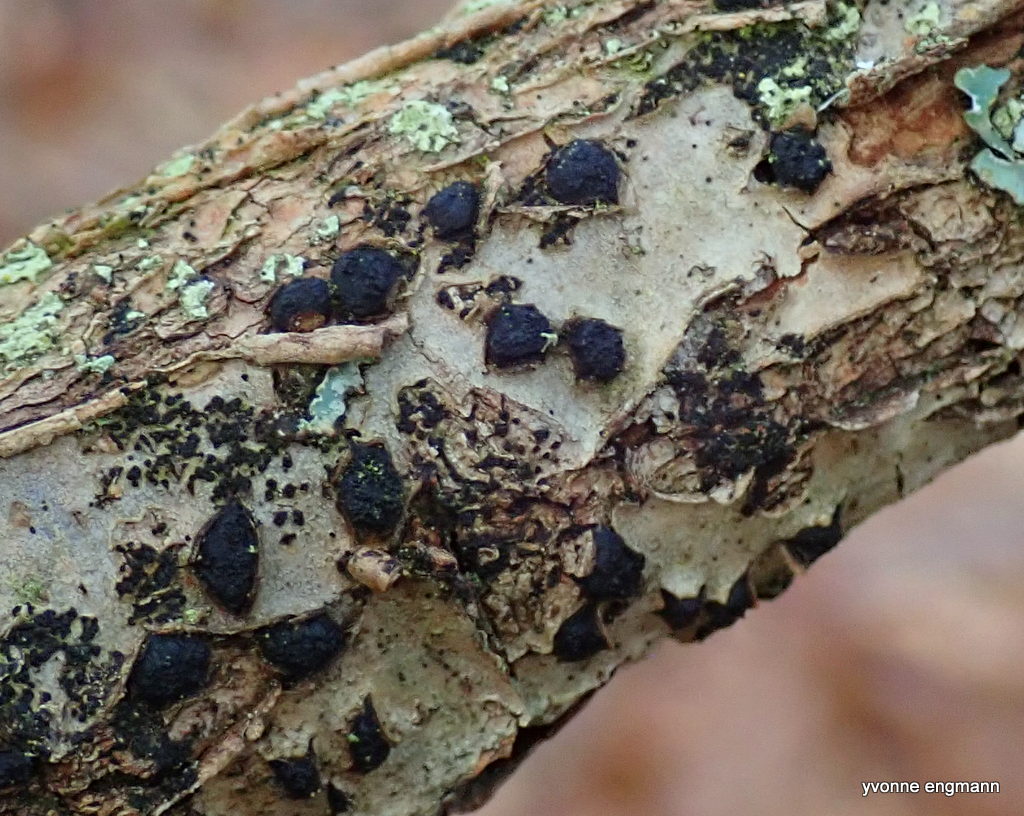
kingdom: Fungi
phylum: Ascomycota
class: Sordariomycetes
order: Xylariales
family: Diatrypaceae
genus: Diatrypella
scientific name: Diatrypella quercina
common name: ege-kulskorpe
